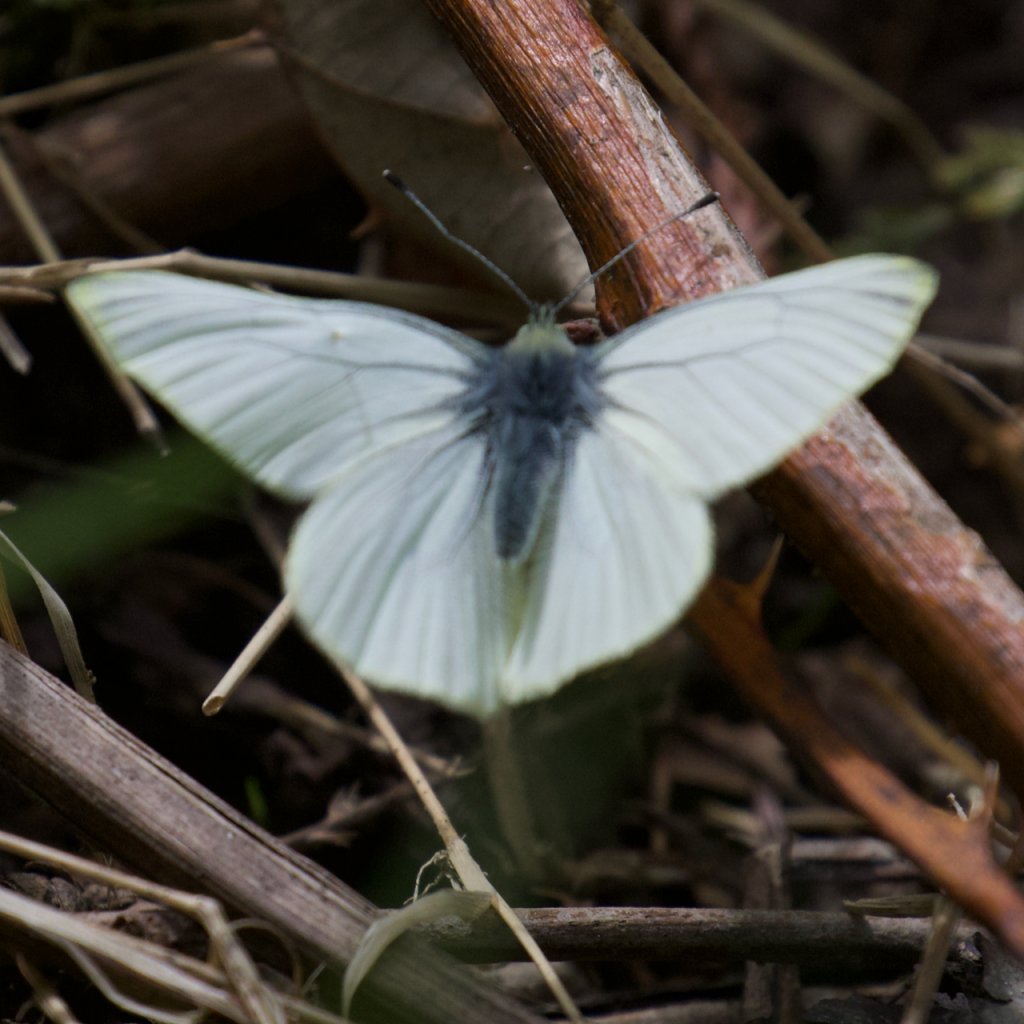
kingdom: Animalia
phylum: Arthropoda
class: Insecta
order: Lepidoptera
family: Pieridae
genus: Pieris
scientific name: Pieris marginalis
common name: Margined White
